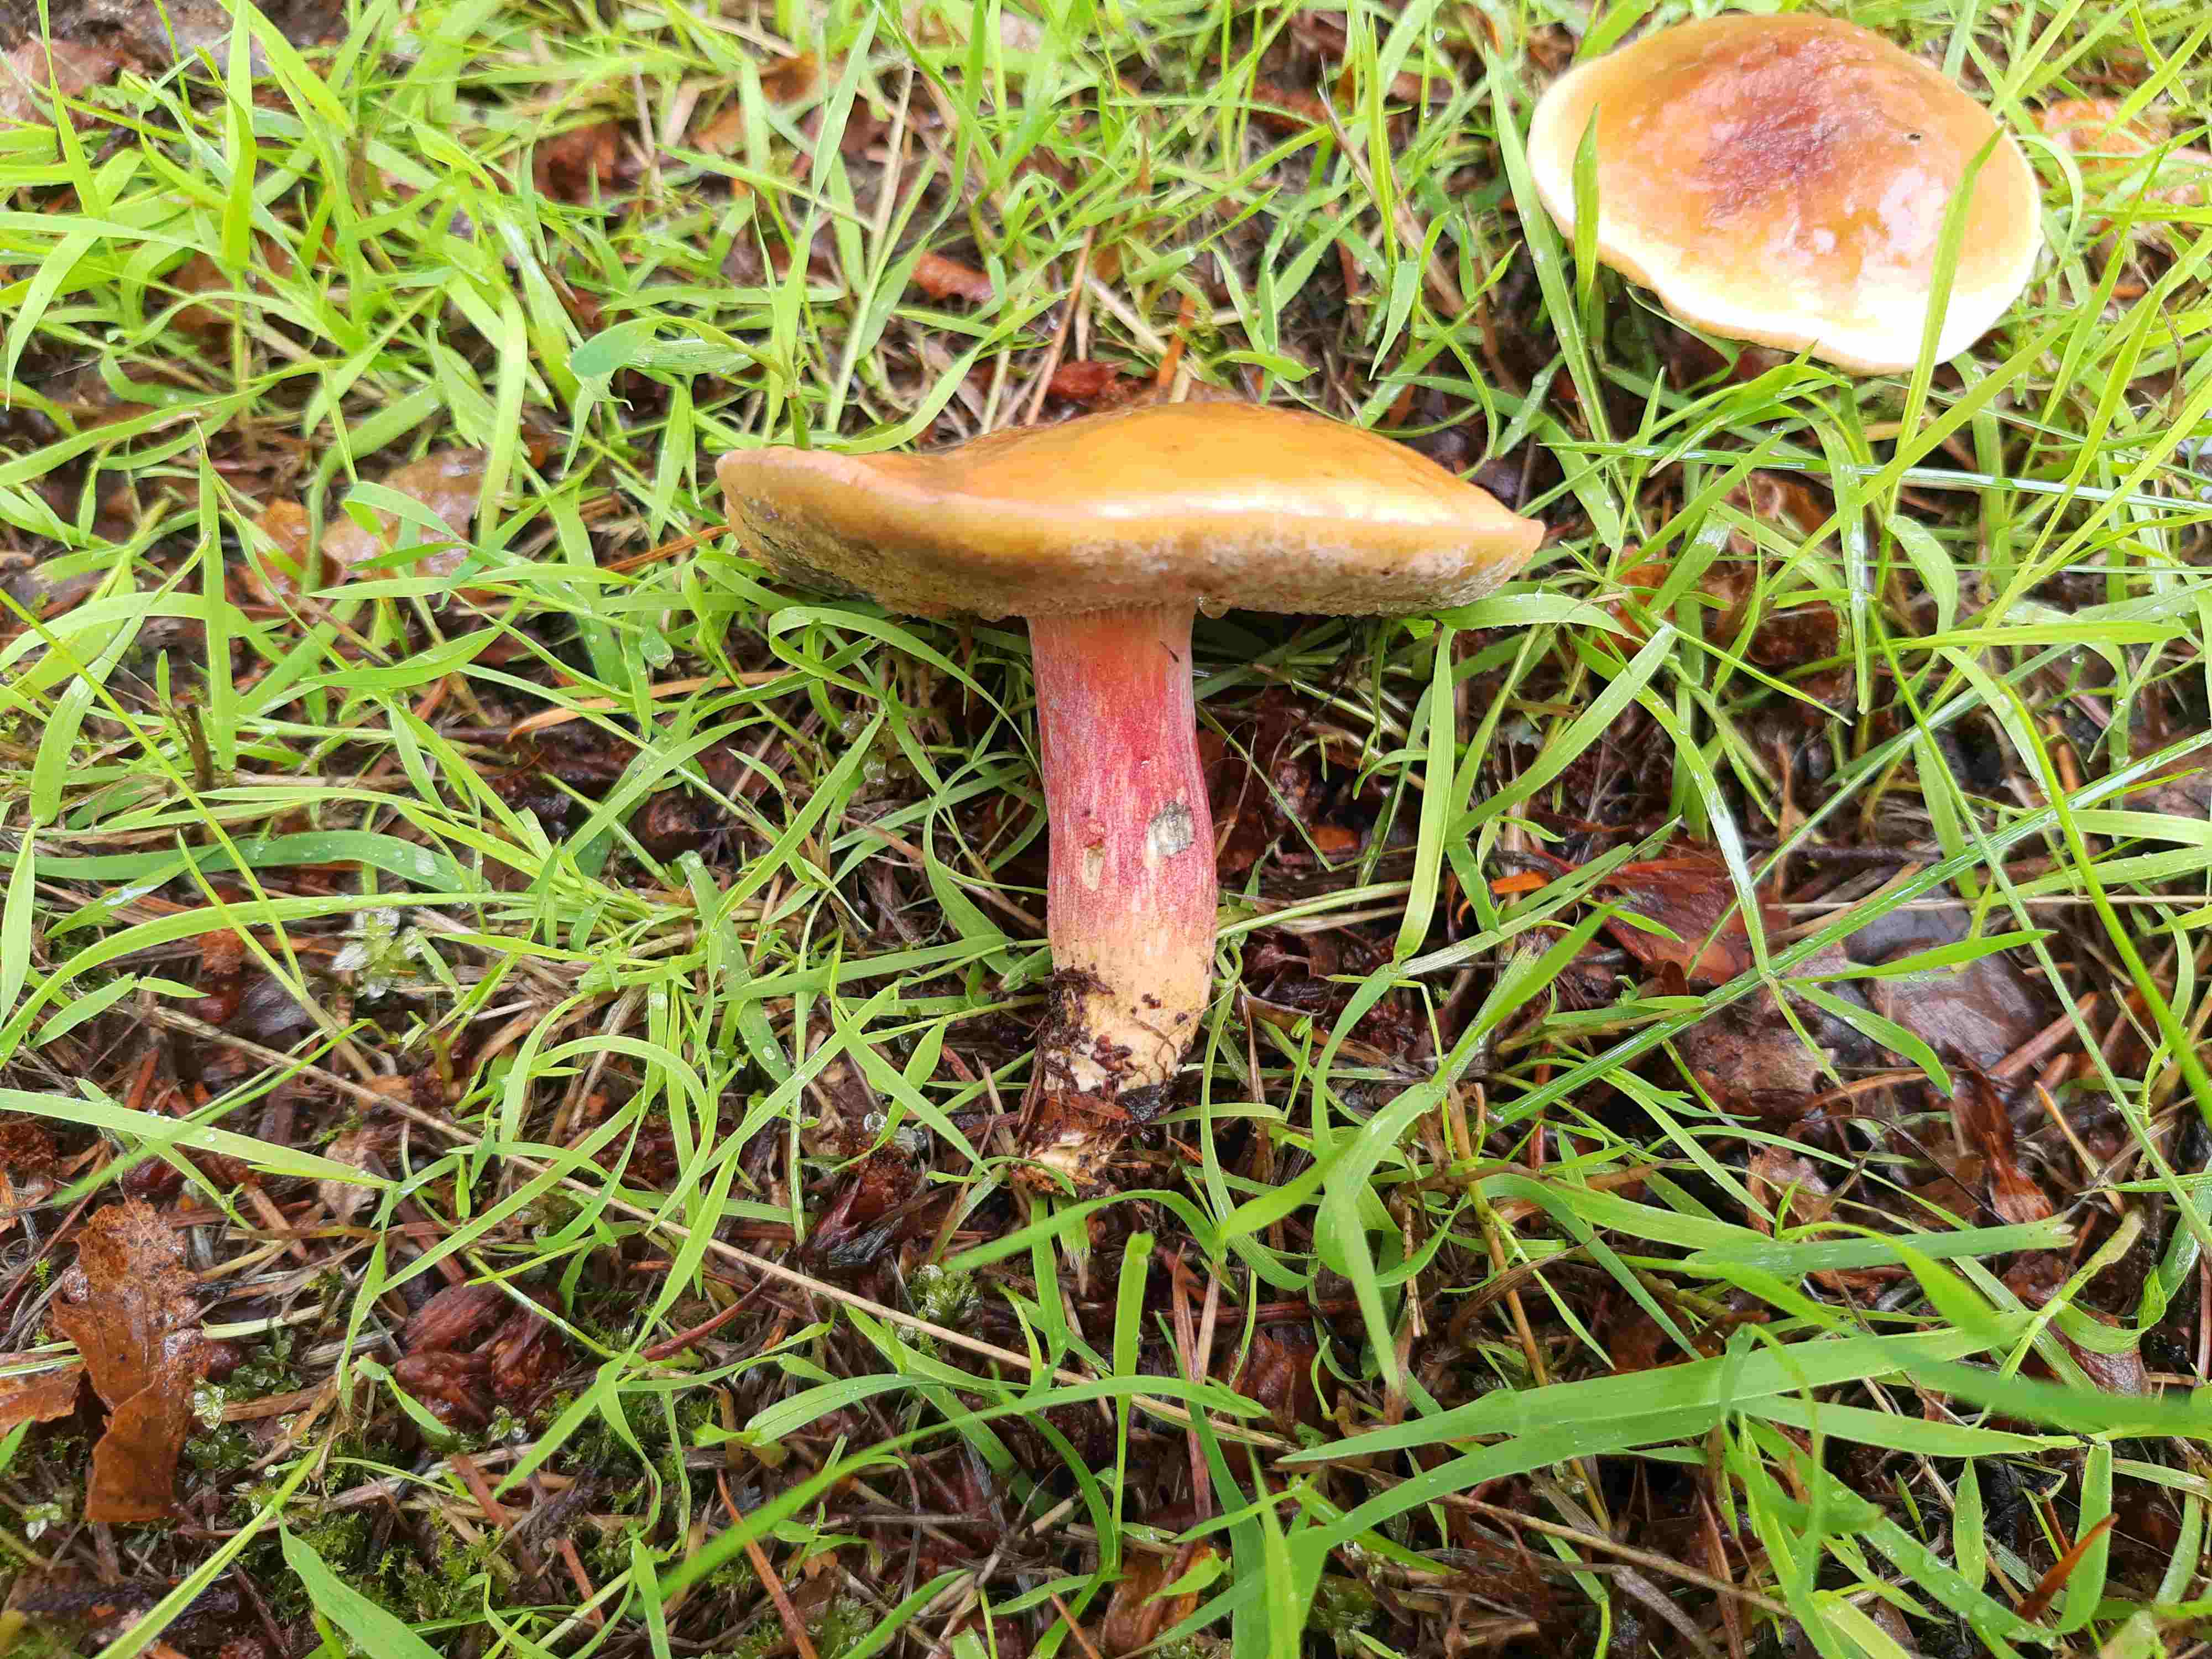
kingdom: Fungi
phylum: Basidiomycota
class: Agaricomycetes
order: Boletales
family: Boletaceae
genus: Hortiboletus
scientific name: Hortiboletus bubalinus
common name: aurora-rørhat
